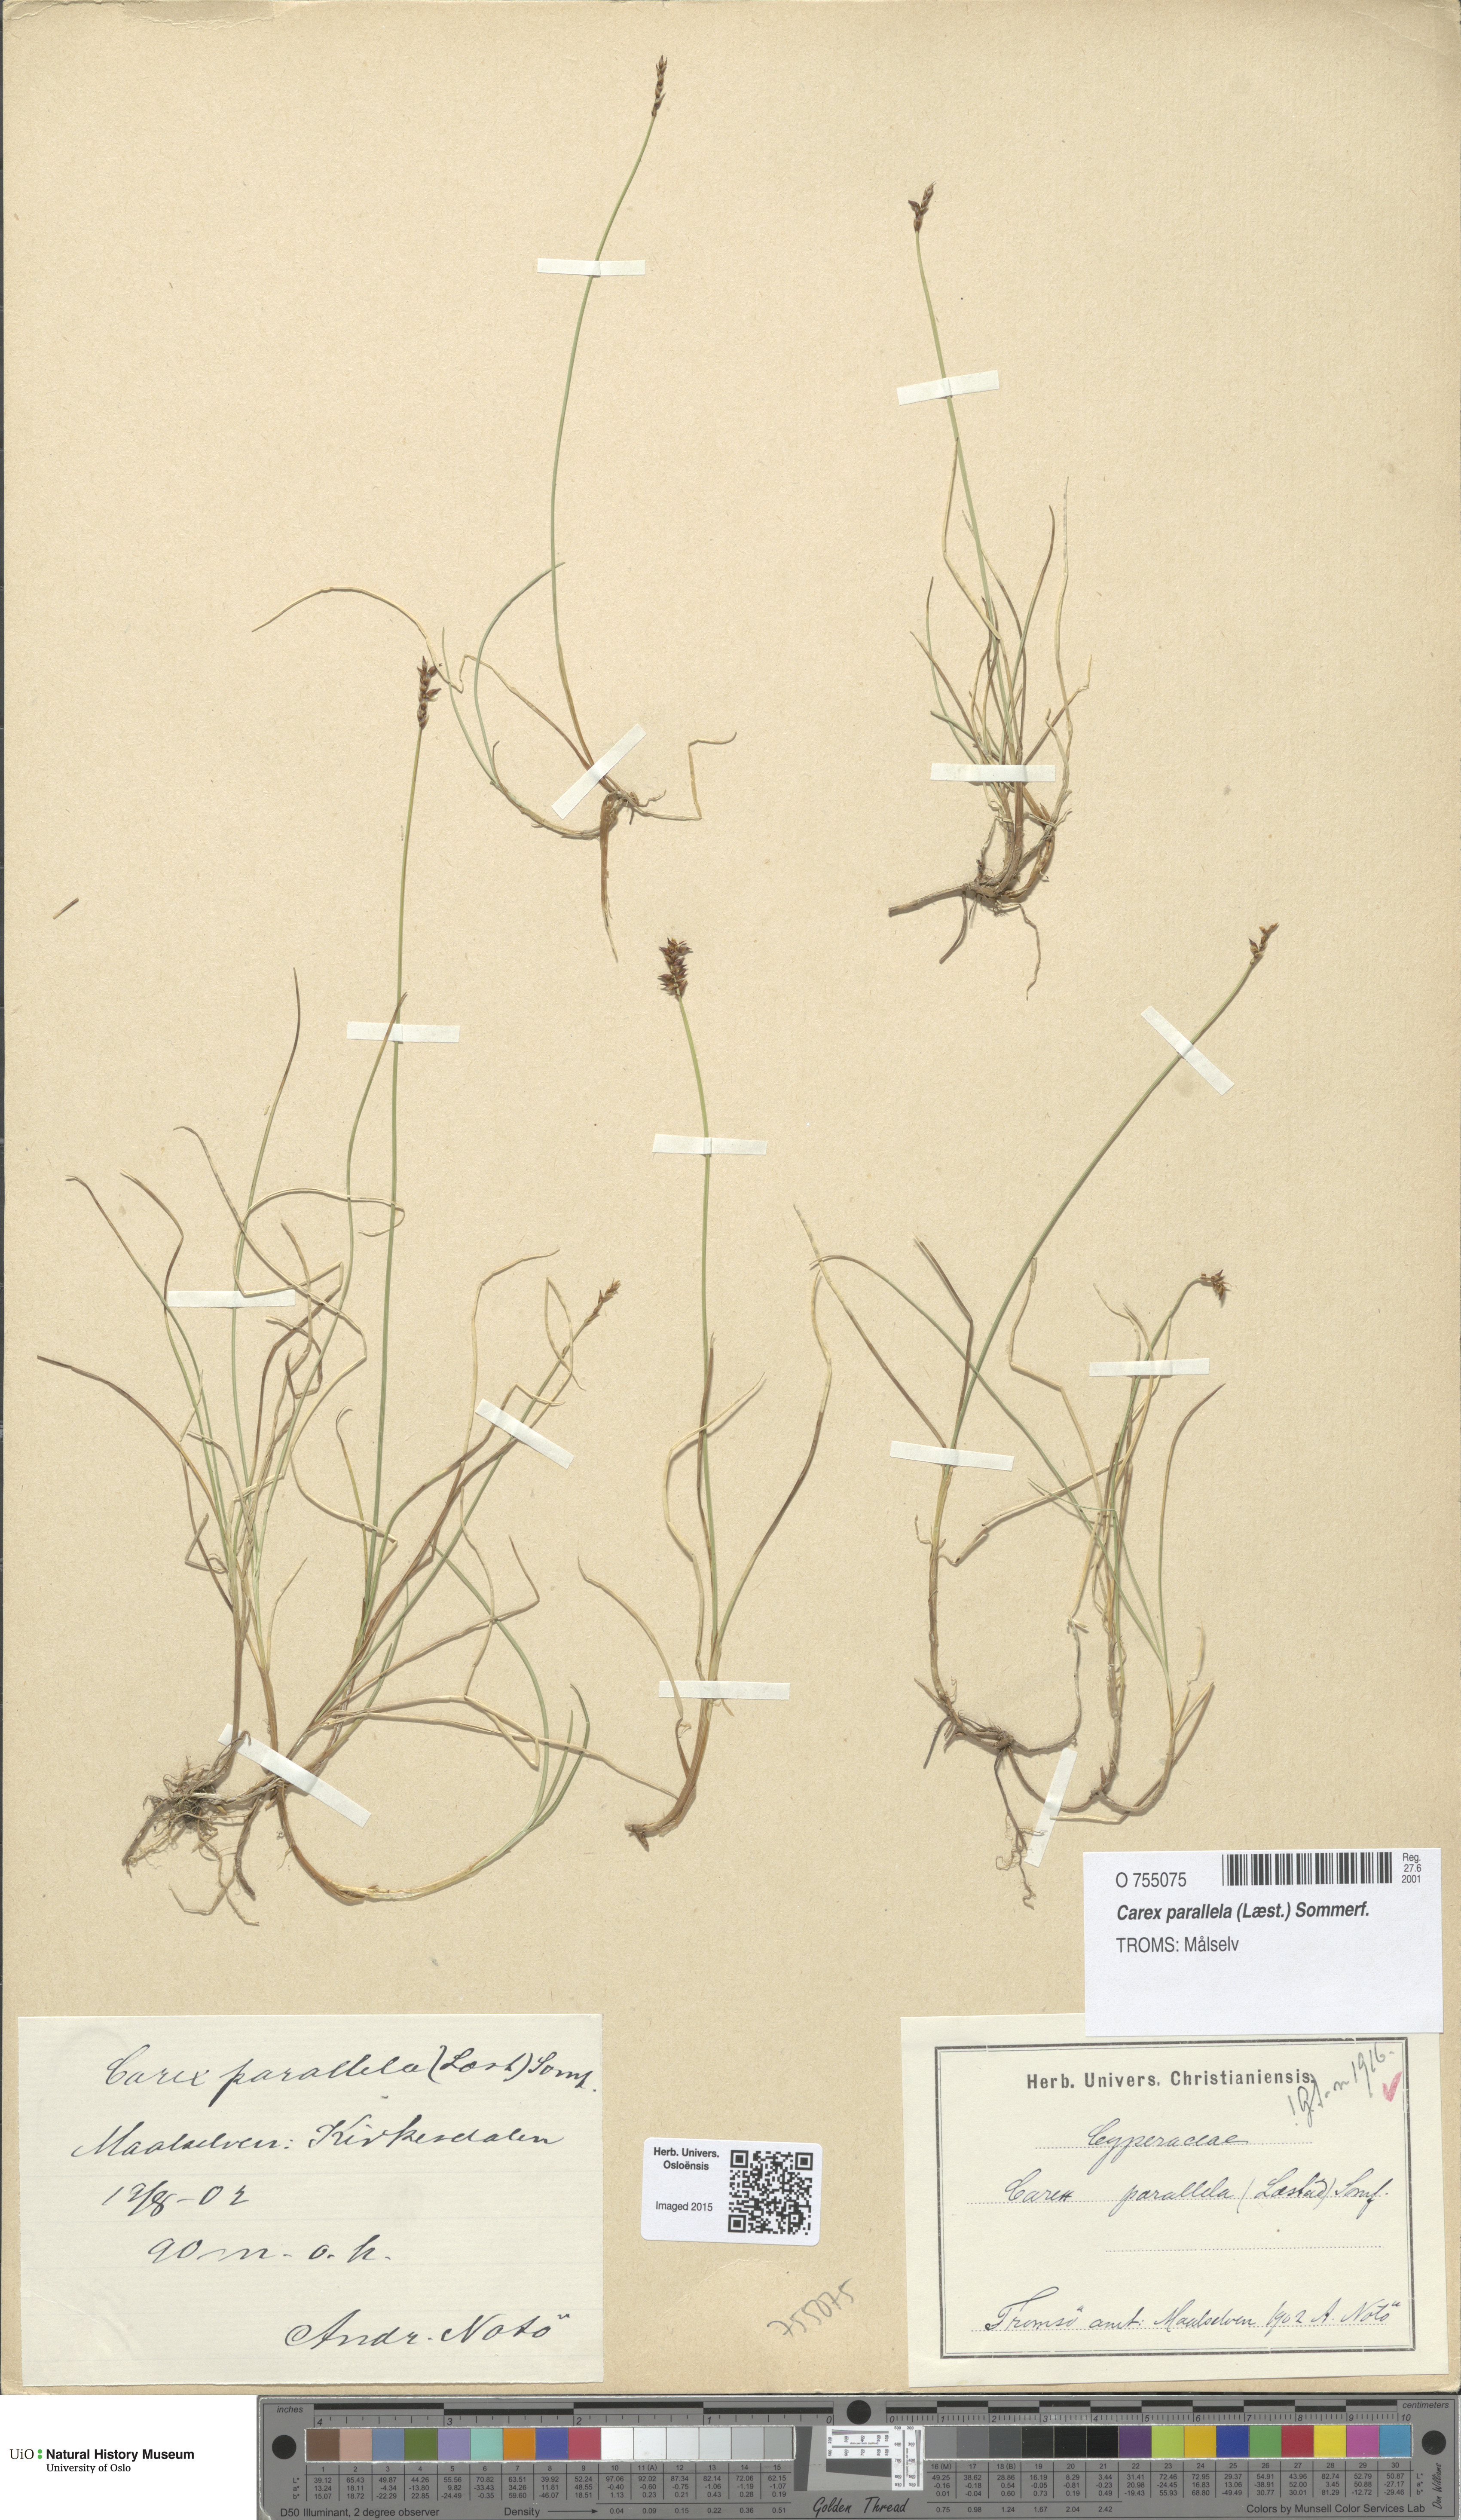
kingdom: Plantae
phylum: Tracheophyta
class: Liliopsida
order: Poales
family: Cyperaceae
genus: Carex
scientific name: Carex parallela
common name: Parallel sedge
